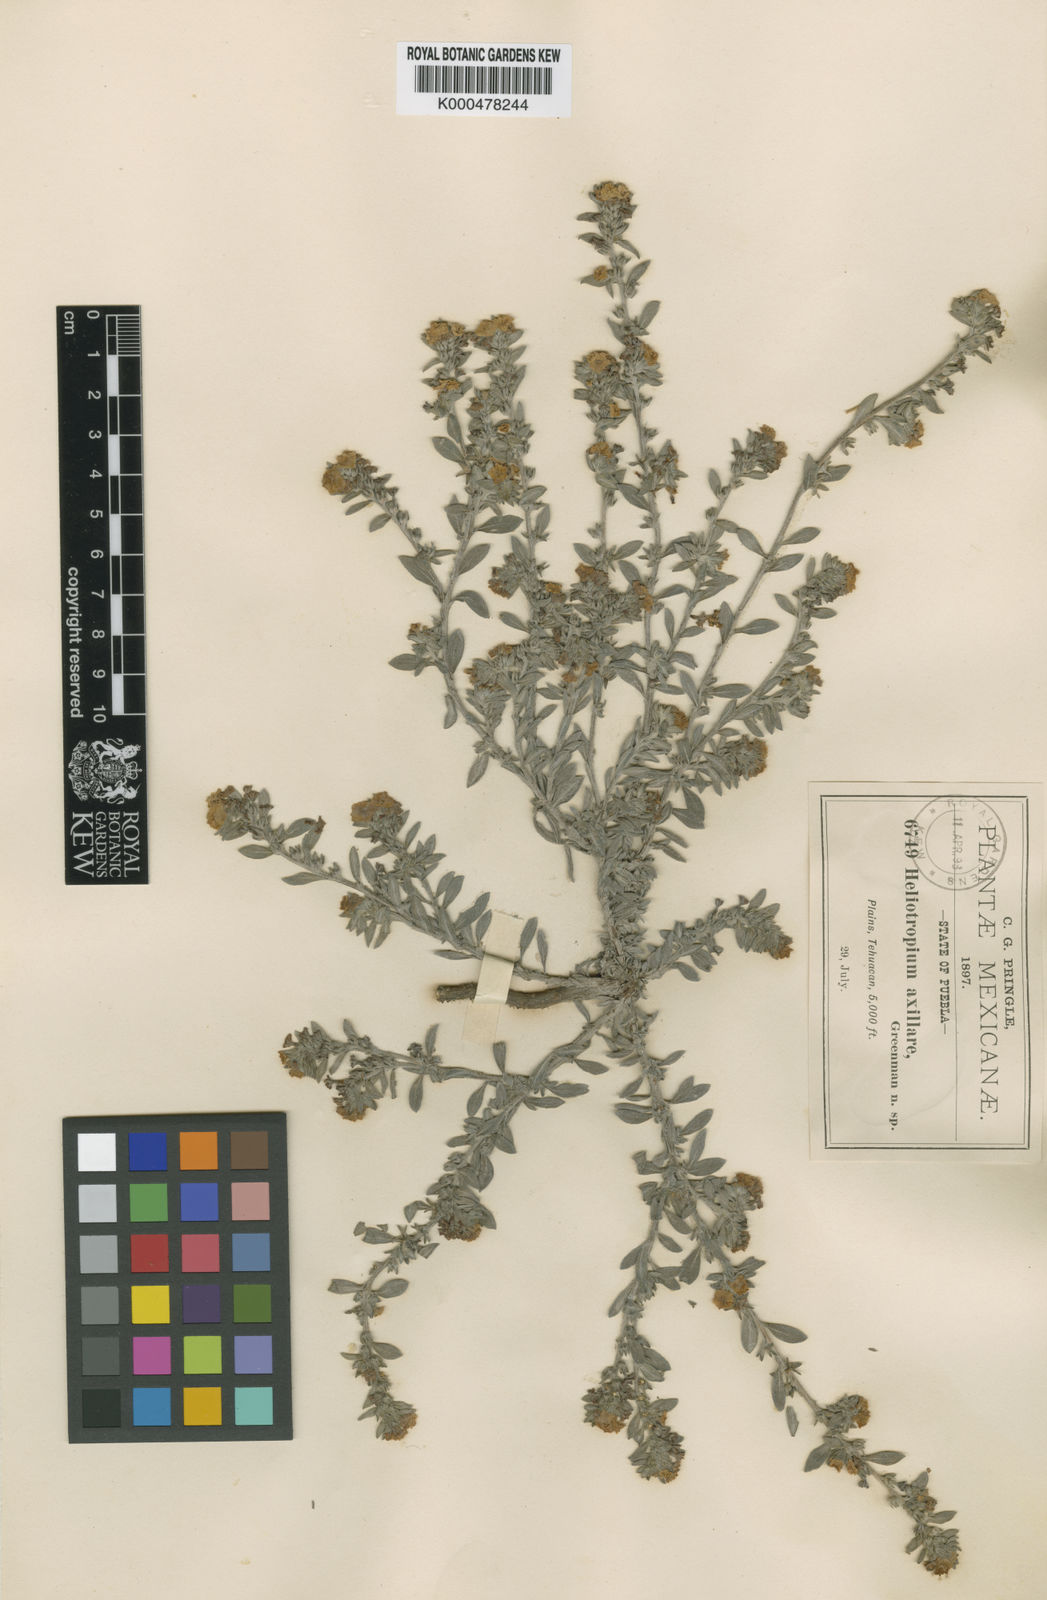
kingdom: Plantae
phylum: Tracheophyta
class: Magnoliopsida
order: Boraginales
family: Heliotropiaceae
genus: Euploca
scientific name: Euploca axillaris
